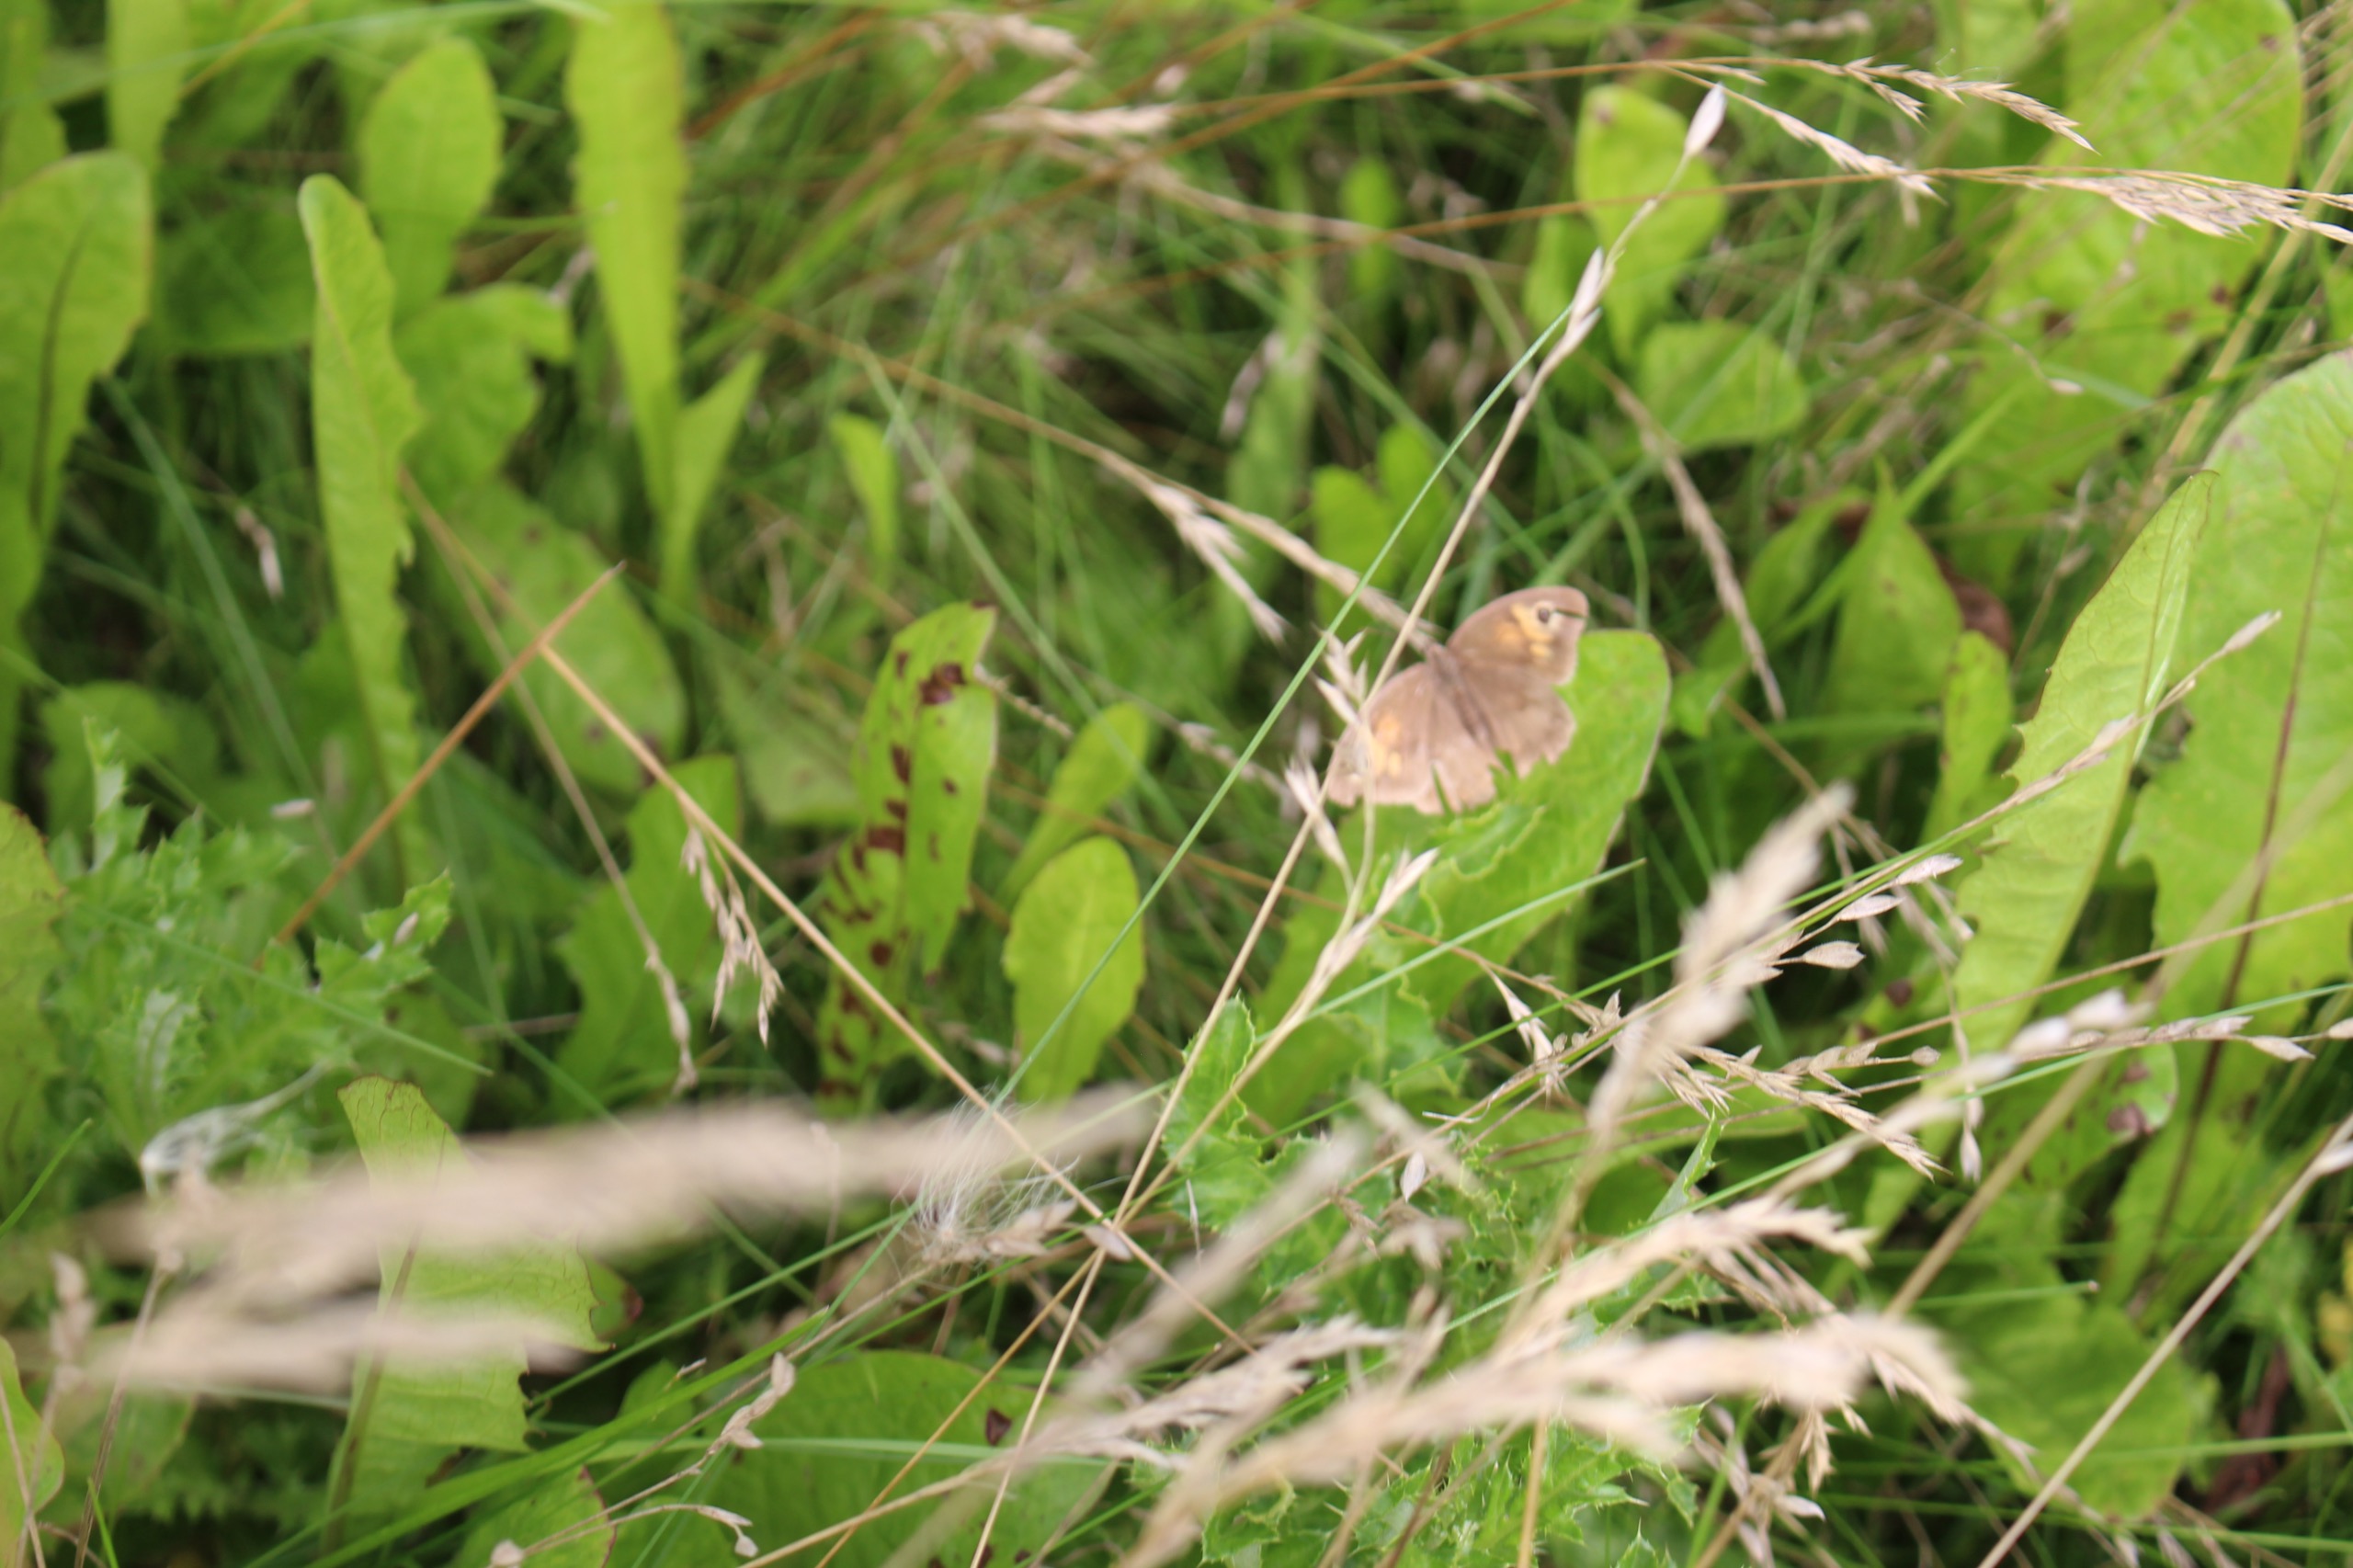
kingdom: Animalia
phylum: Arthropoda
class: Insecta
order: Lepidoptera
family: Nymphalidae
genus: Maniola
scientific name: Maniola jurtina
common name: Græsrandøje
